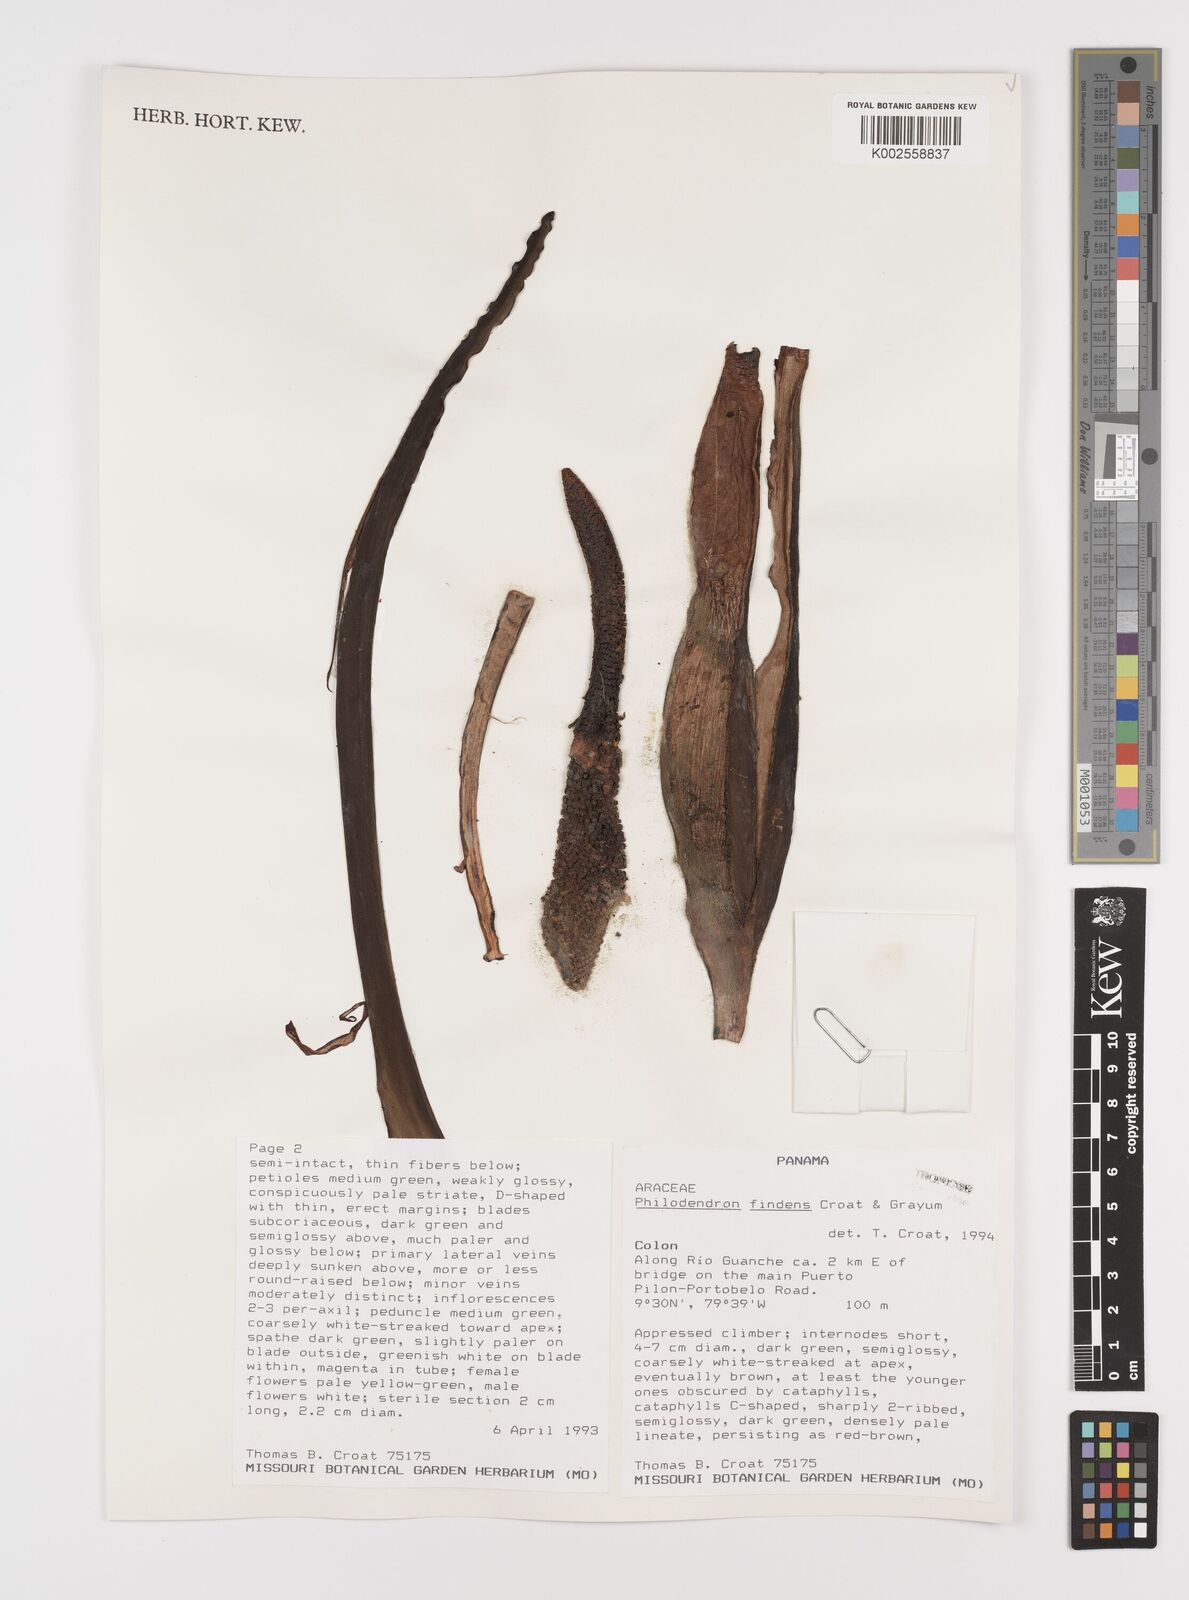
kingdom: Plantae
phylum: Tracheophyta
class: Liliopsida
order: Alismatales
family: Araceae
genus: Philodendron
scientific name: Philodendron findens
